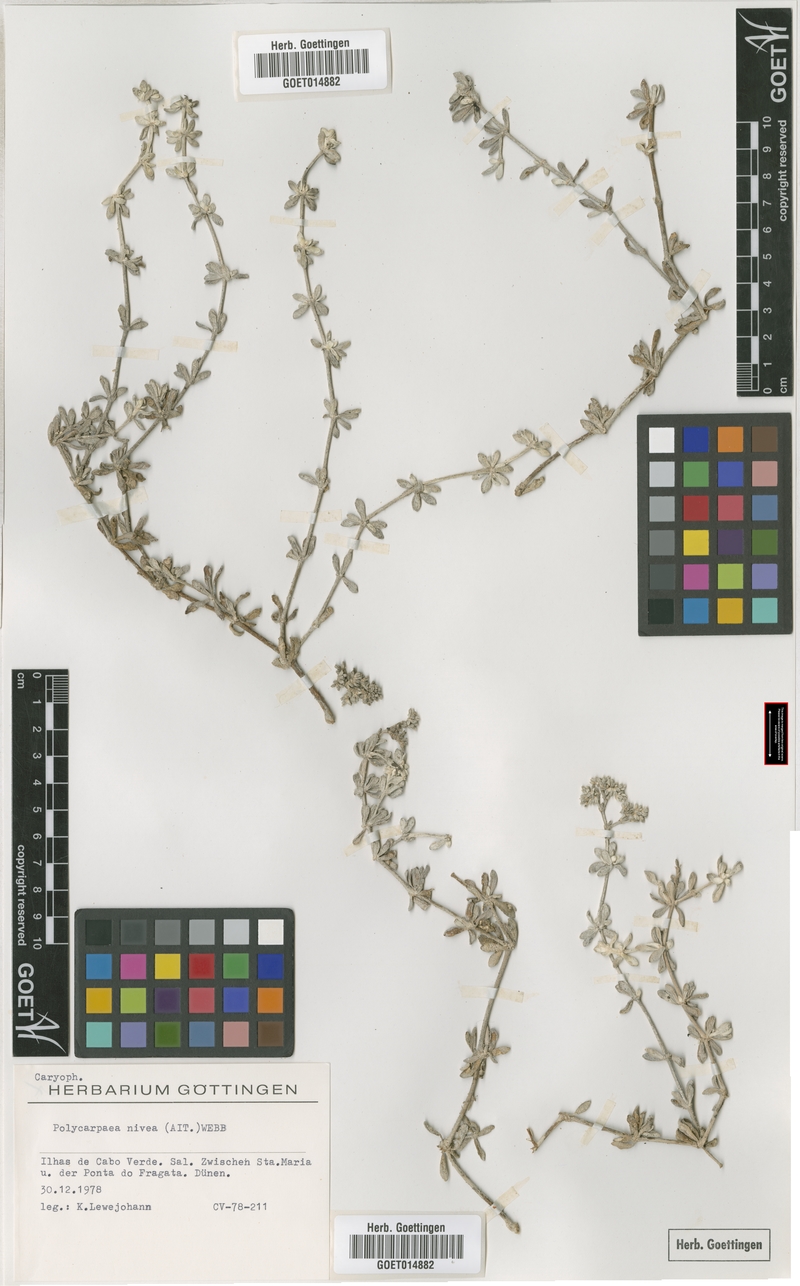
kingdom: Plantae
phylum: Tracheophyta
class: Magnoliopsida
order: Caryophyllales
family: Caryophyllaceae
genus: Polycarpaea
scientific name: Polycarpaea nivea
